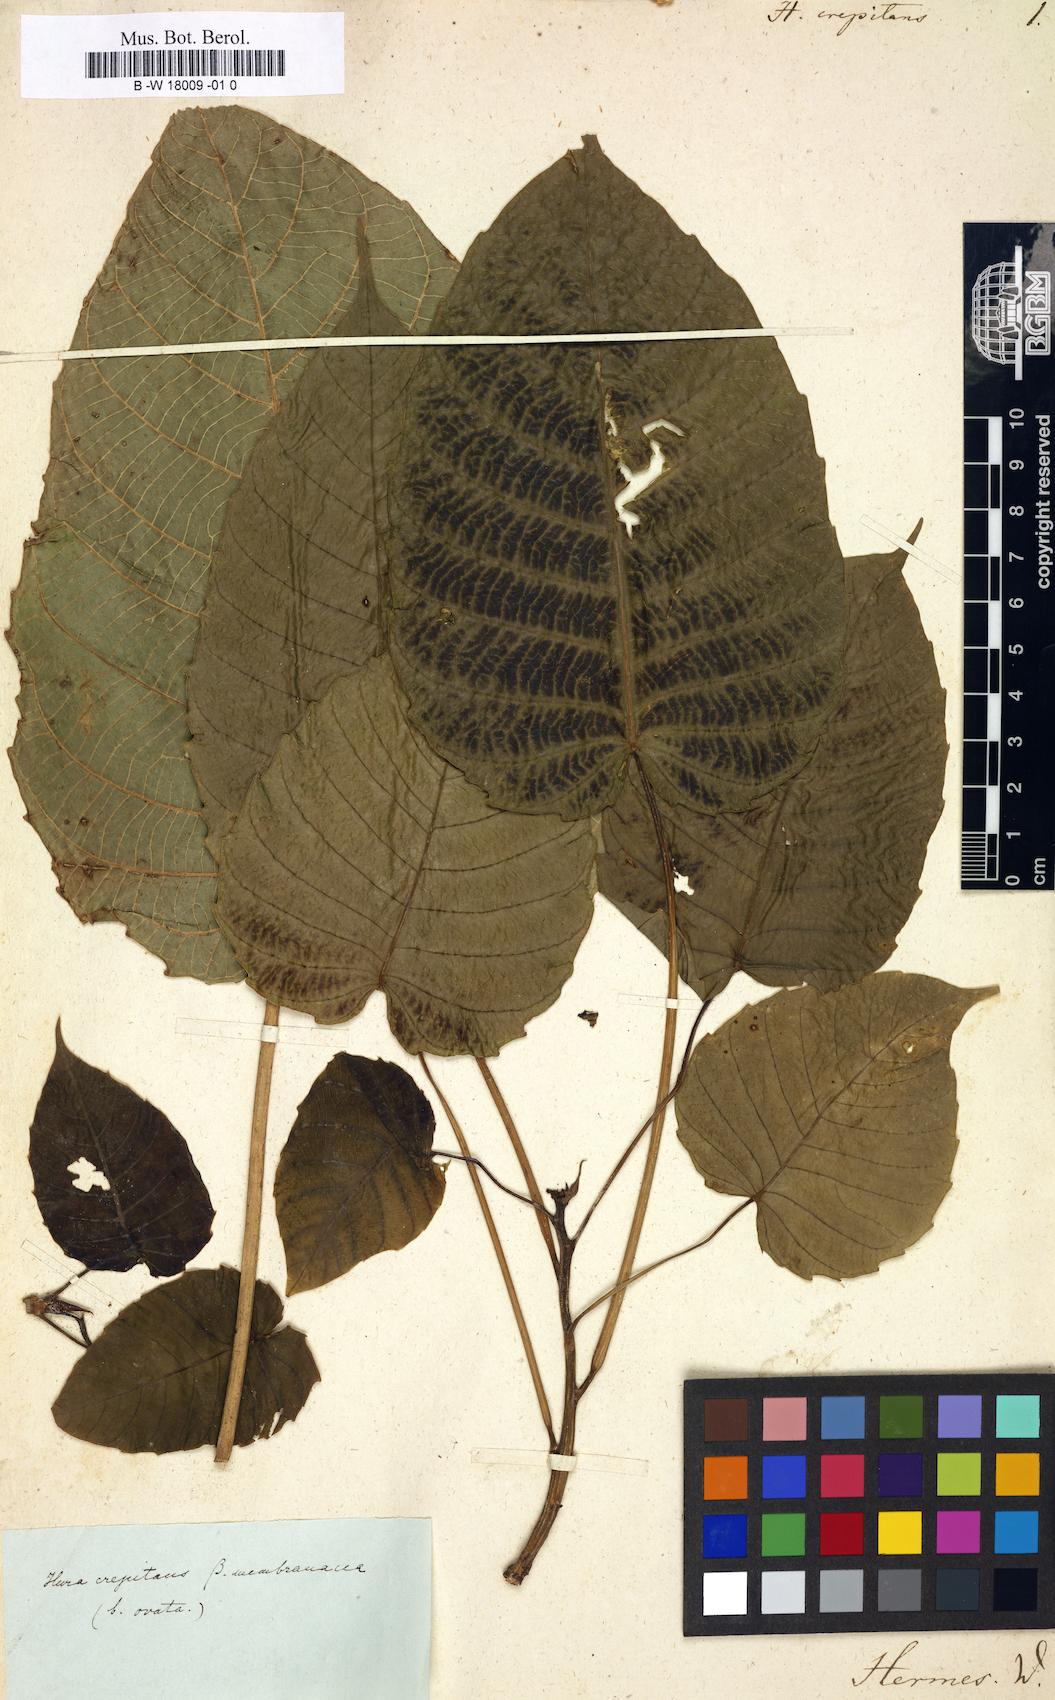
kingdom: Plantae
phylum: Tracheophyta
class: Magnoliopsida
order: Malpighiales
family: Euphorbiaceae
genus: Hura
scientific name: Hura crepitans
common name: Sandboxtree
